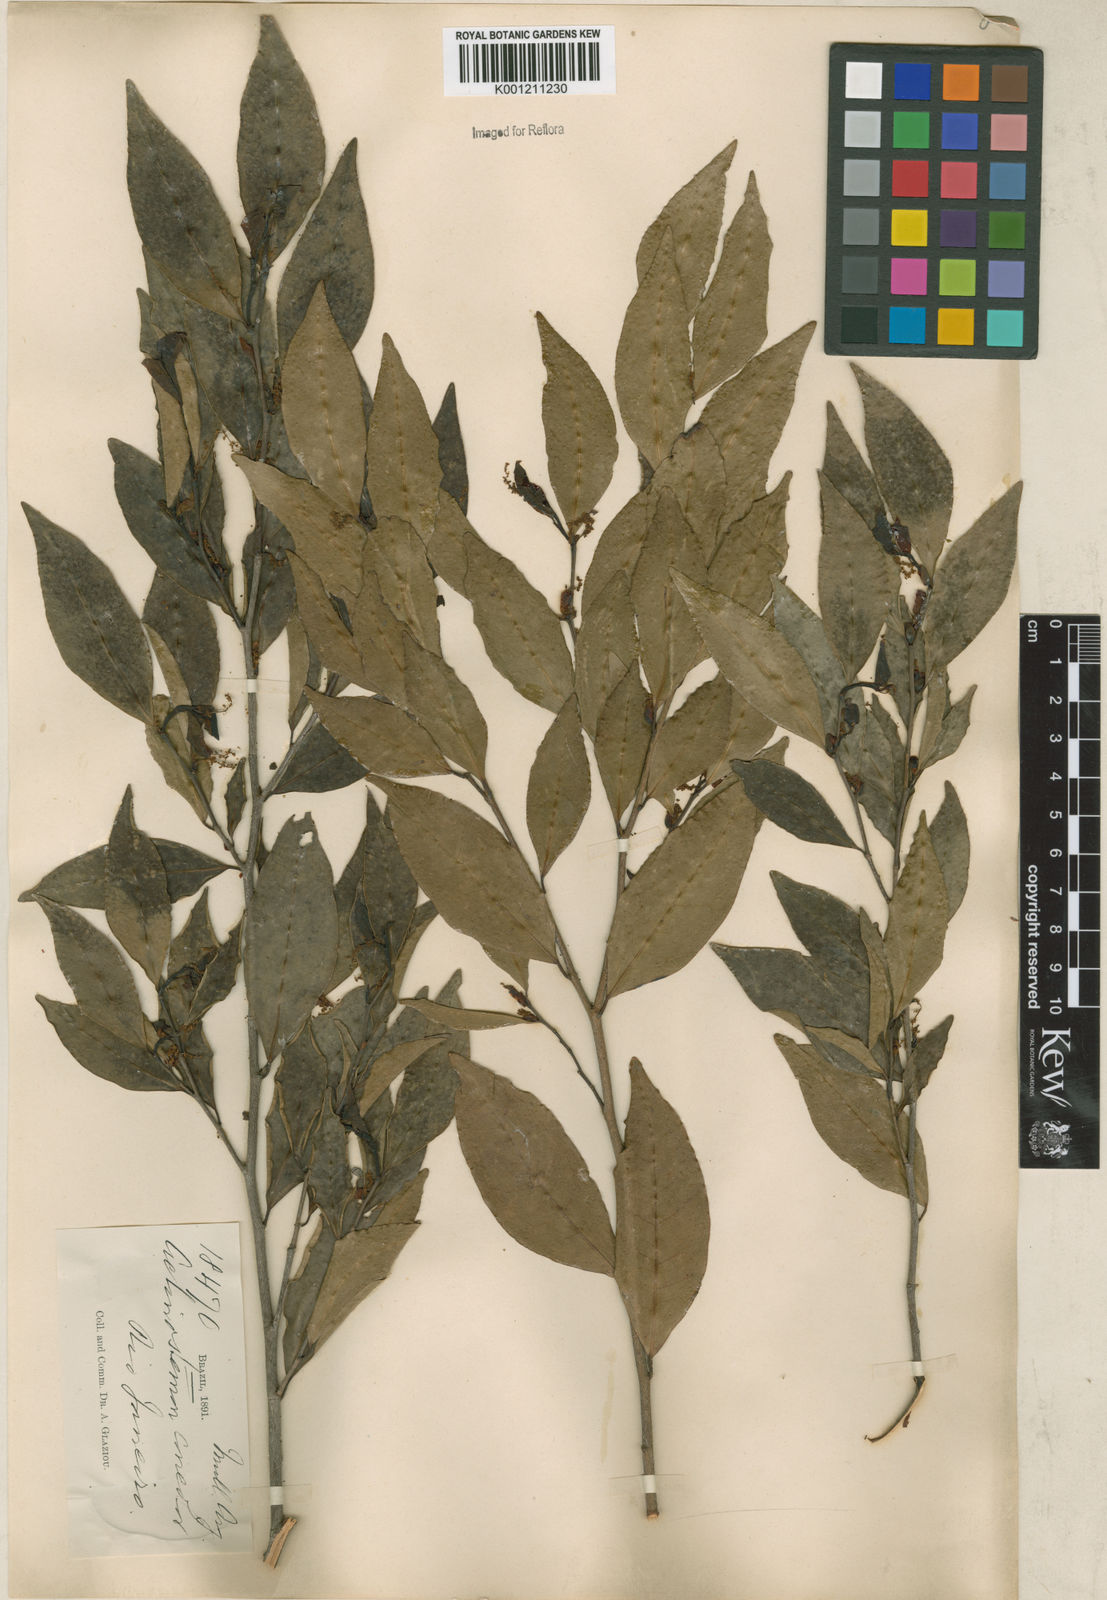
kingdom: Plantae
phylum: Tracheophyta
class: Magnoliopsida
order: Malpighiales
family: Euphorbiaceae
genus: Actinostemon
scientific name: Actinostemon
